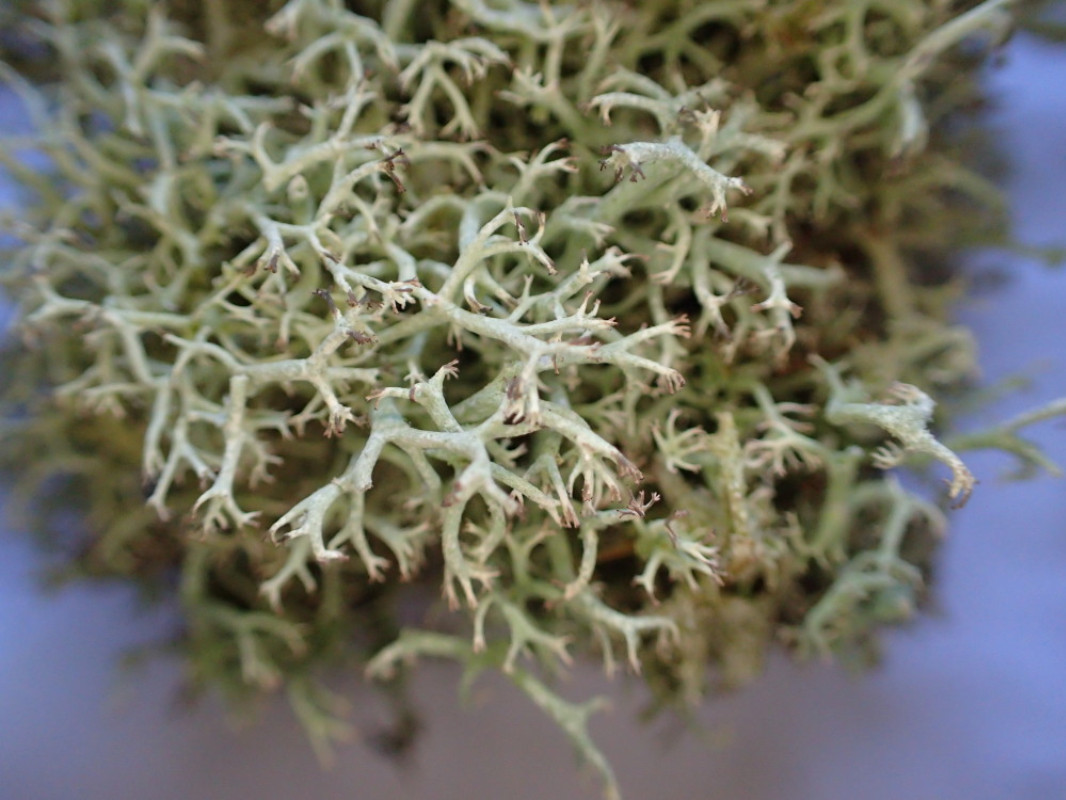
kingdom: Fungi
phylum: Ascomycota
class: Lecanoromycetes
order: Lecanorales
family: Cladoniaceae
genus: Cladonia
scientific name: Cladonia portentosa
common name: hede-rensdyrlav
